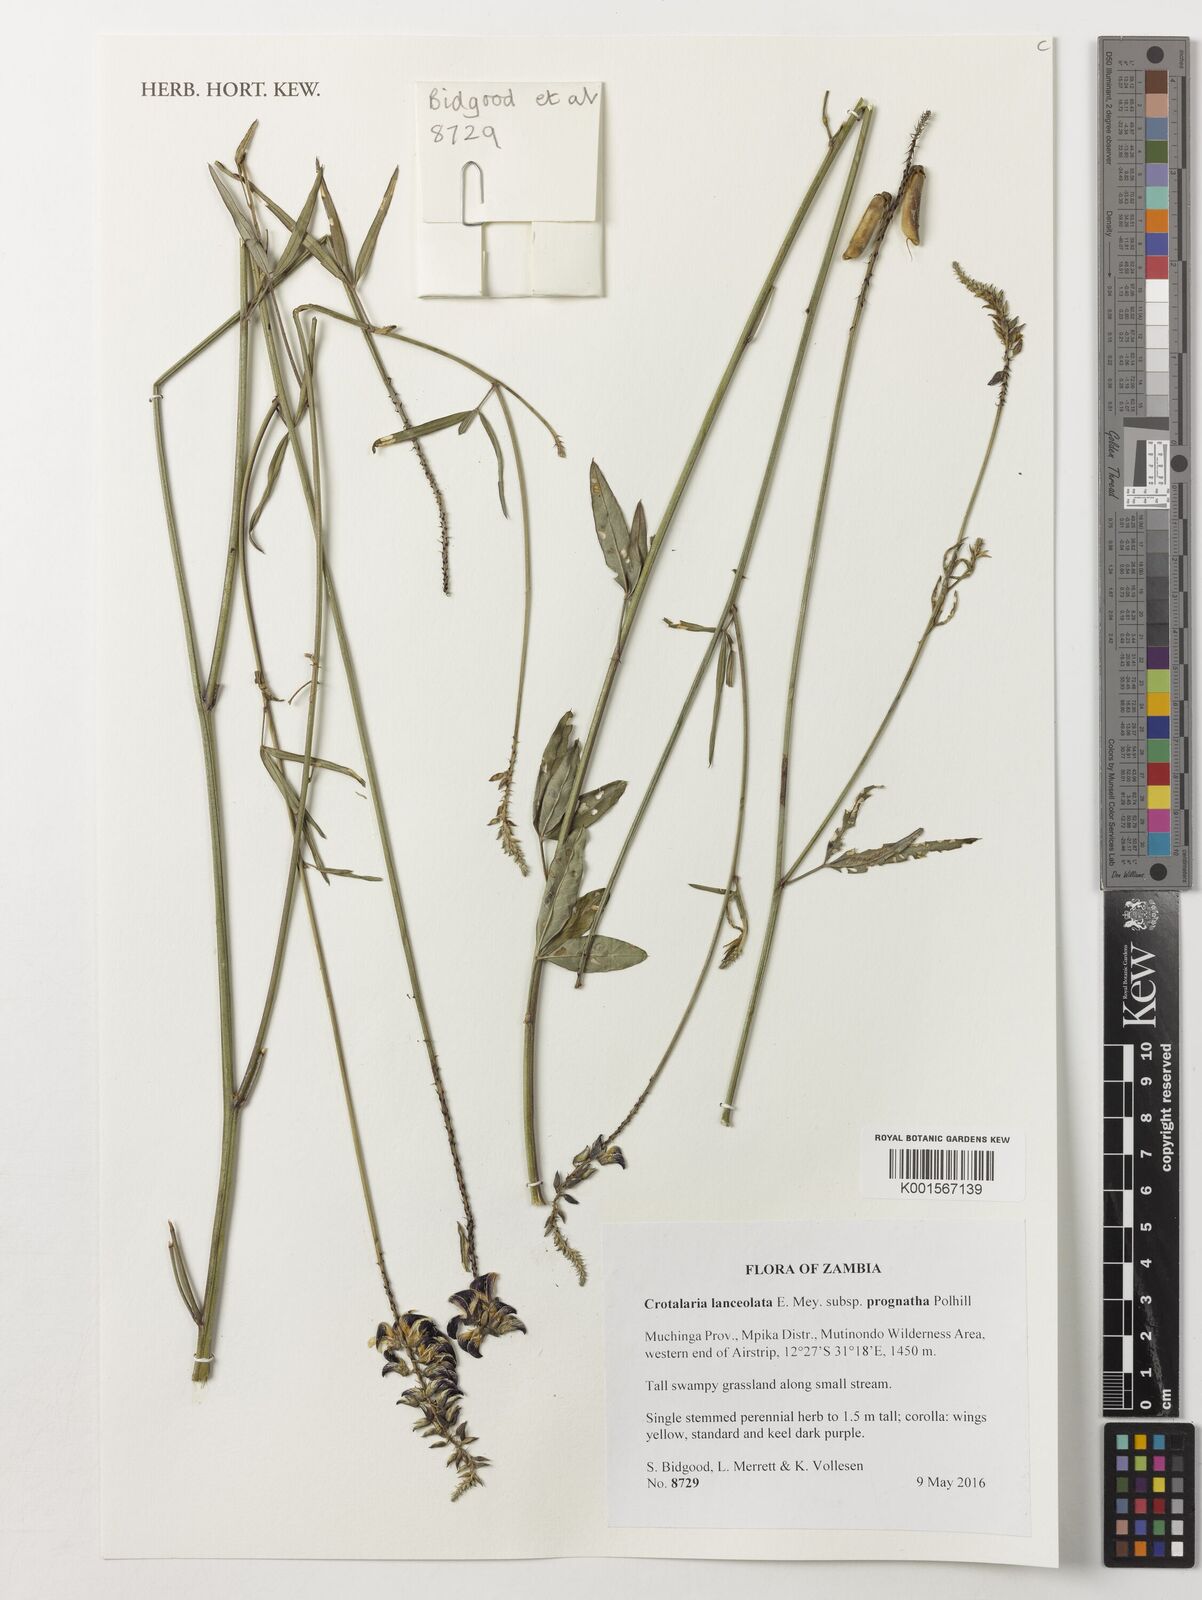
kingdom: Plantae
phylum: Tracheophyta
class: Magnoliopsida
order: Fabales
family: Fabaceae
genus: Crotalaria
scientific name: Crotalaria lanceolata
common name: Lanceleaf rattlebox
